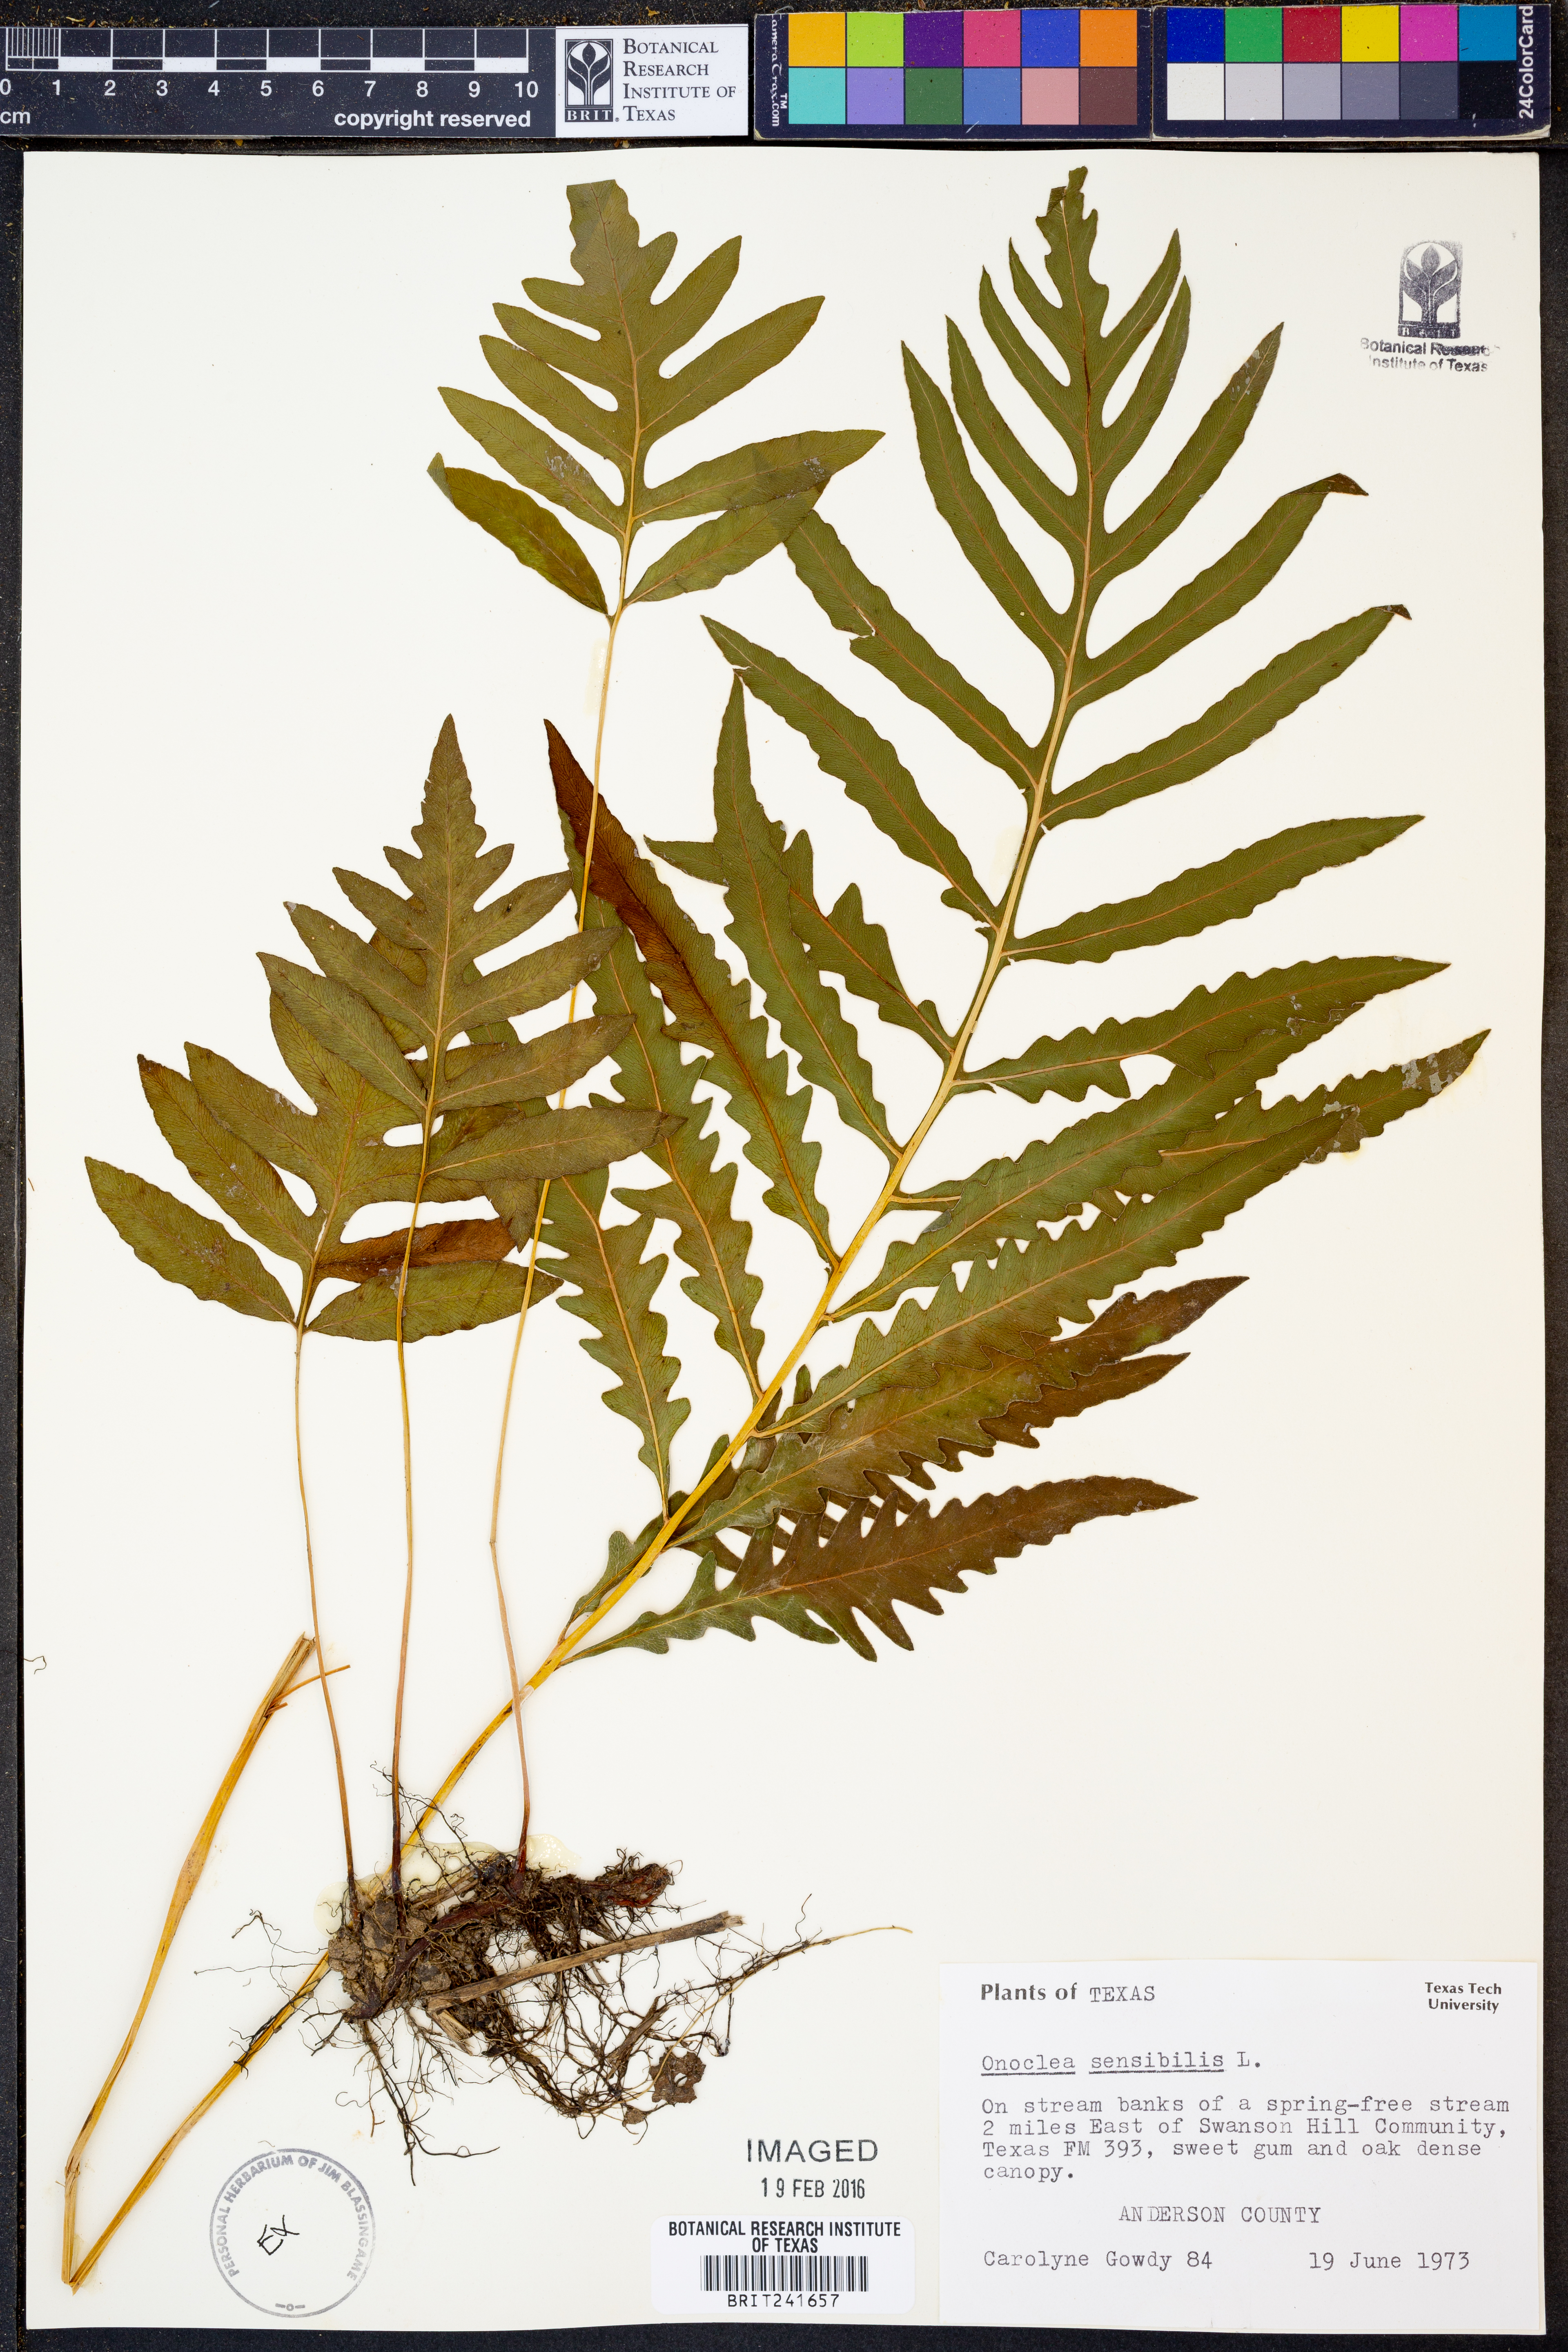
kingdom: Plantae
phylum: Tracheophyta
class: Polypodiopsida
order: Polypodiales
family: Onocleaceae
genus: Onoclea
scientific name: Onoclea sensibilis
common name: Sensitive fern
